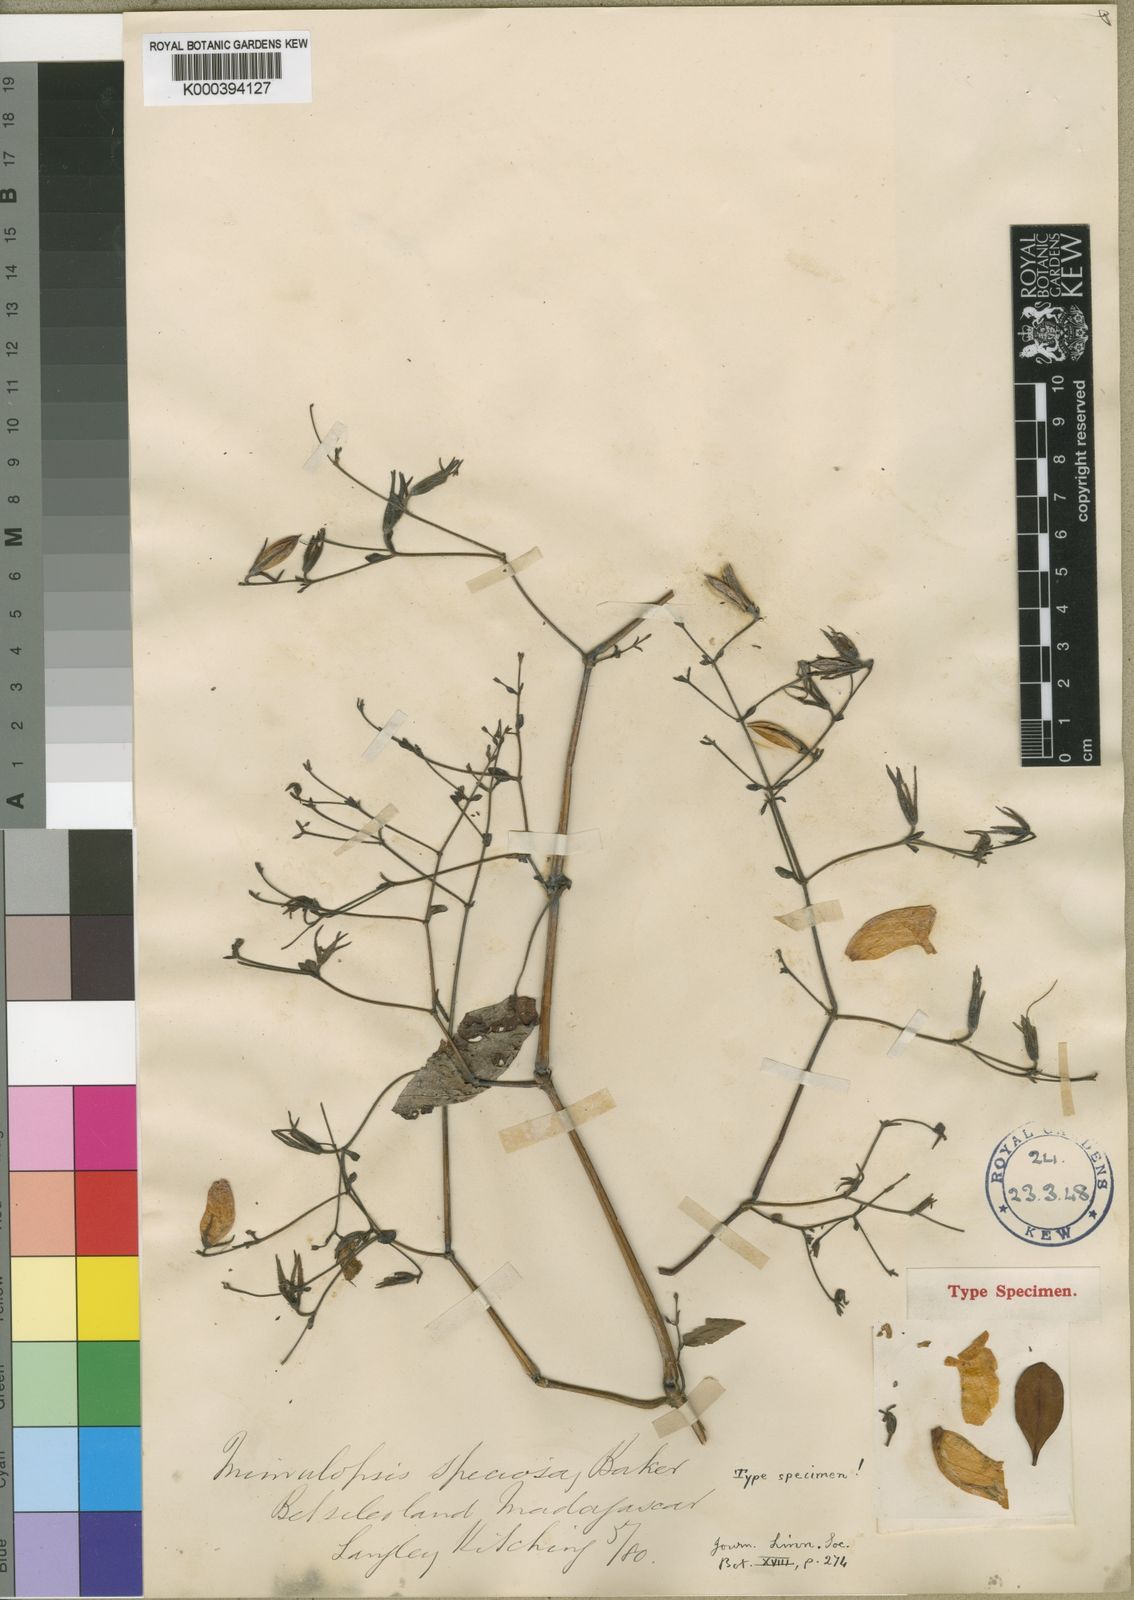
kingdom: Plantae
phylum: Tracheophyta
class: Magnoliopsida
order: Lamiales
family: Acanthaceae
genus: Mimulopsis
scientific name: Mimulopsis speciosa
